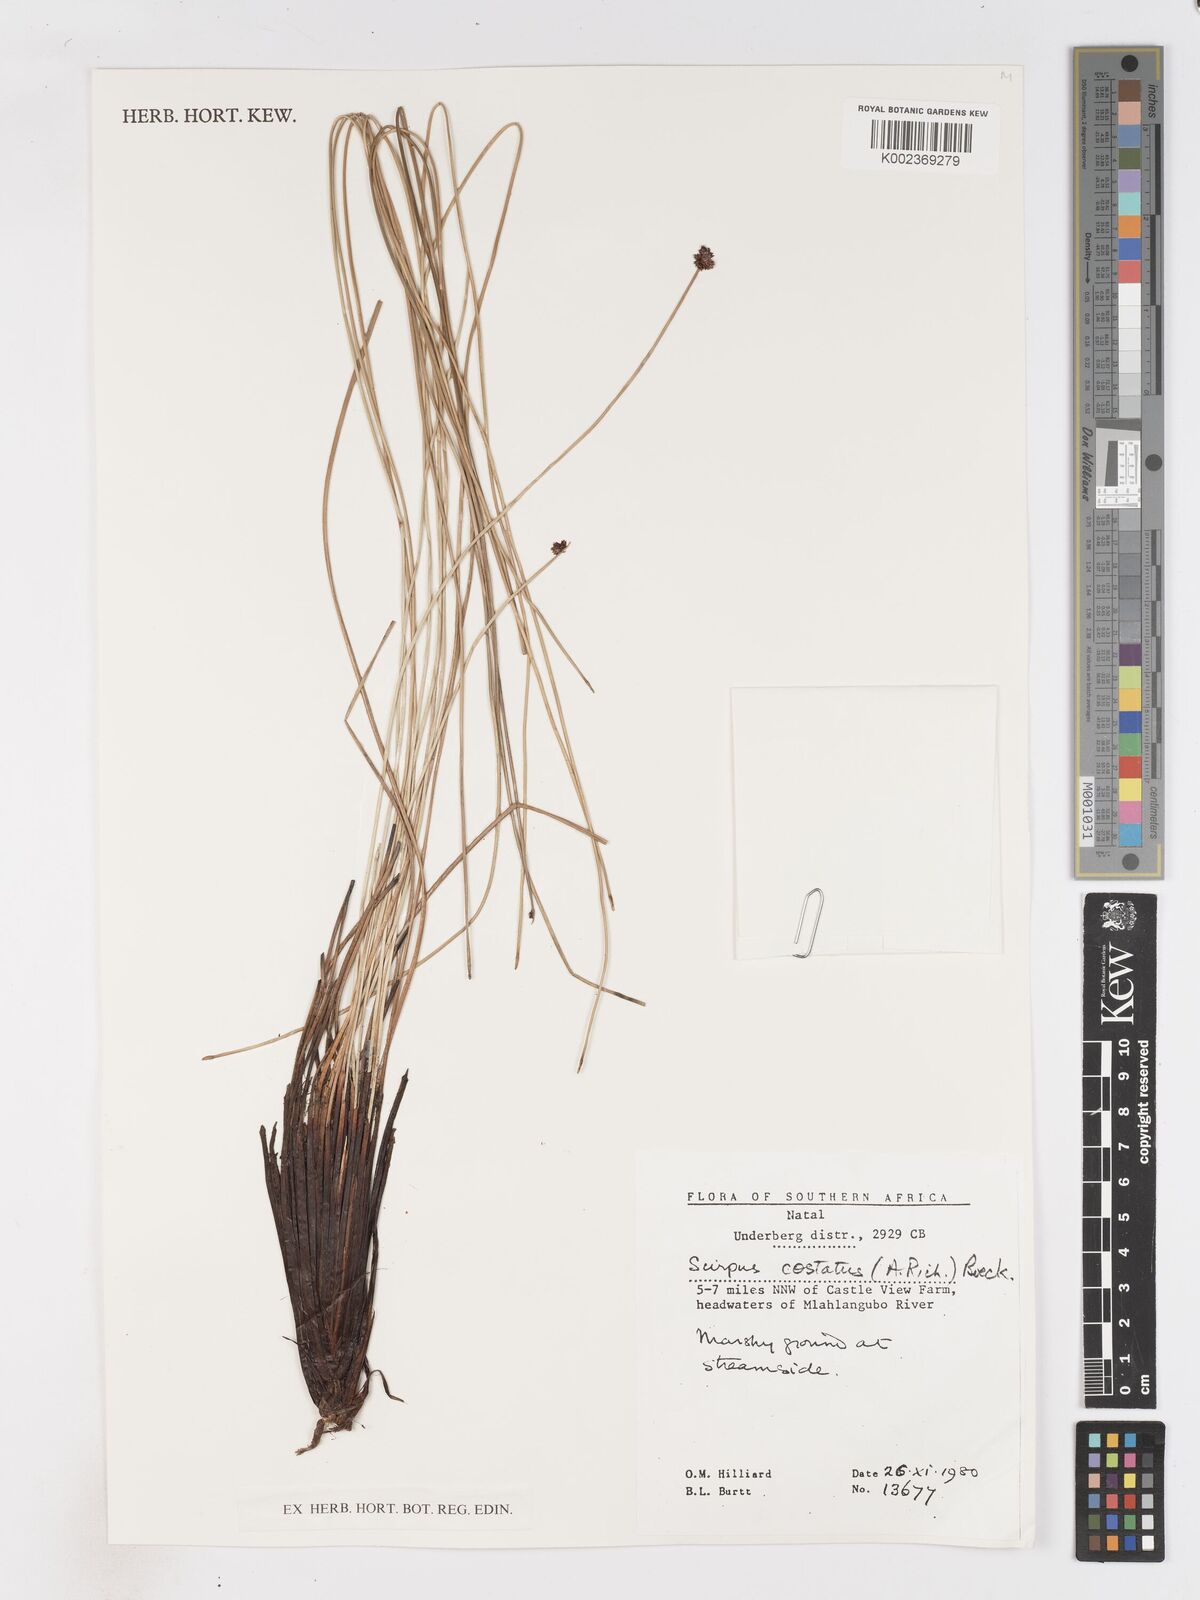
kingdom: Plantae
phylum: Tracheophyta
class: Liliopsida
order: Poales
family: Cyperaceae
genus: Isolepis
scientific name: Isolepis costata
